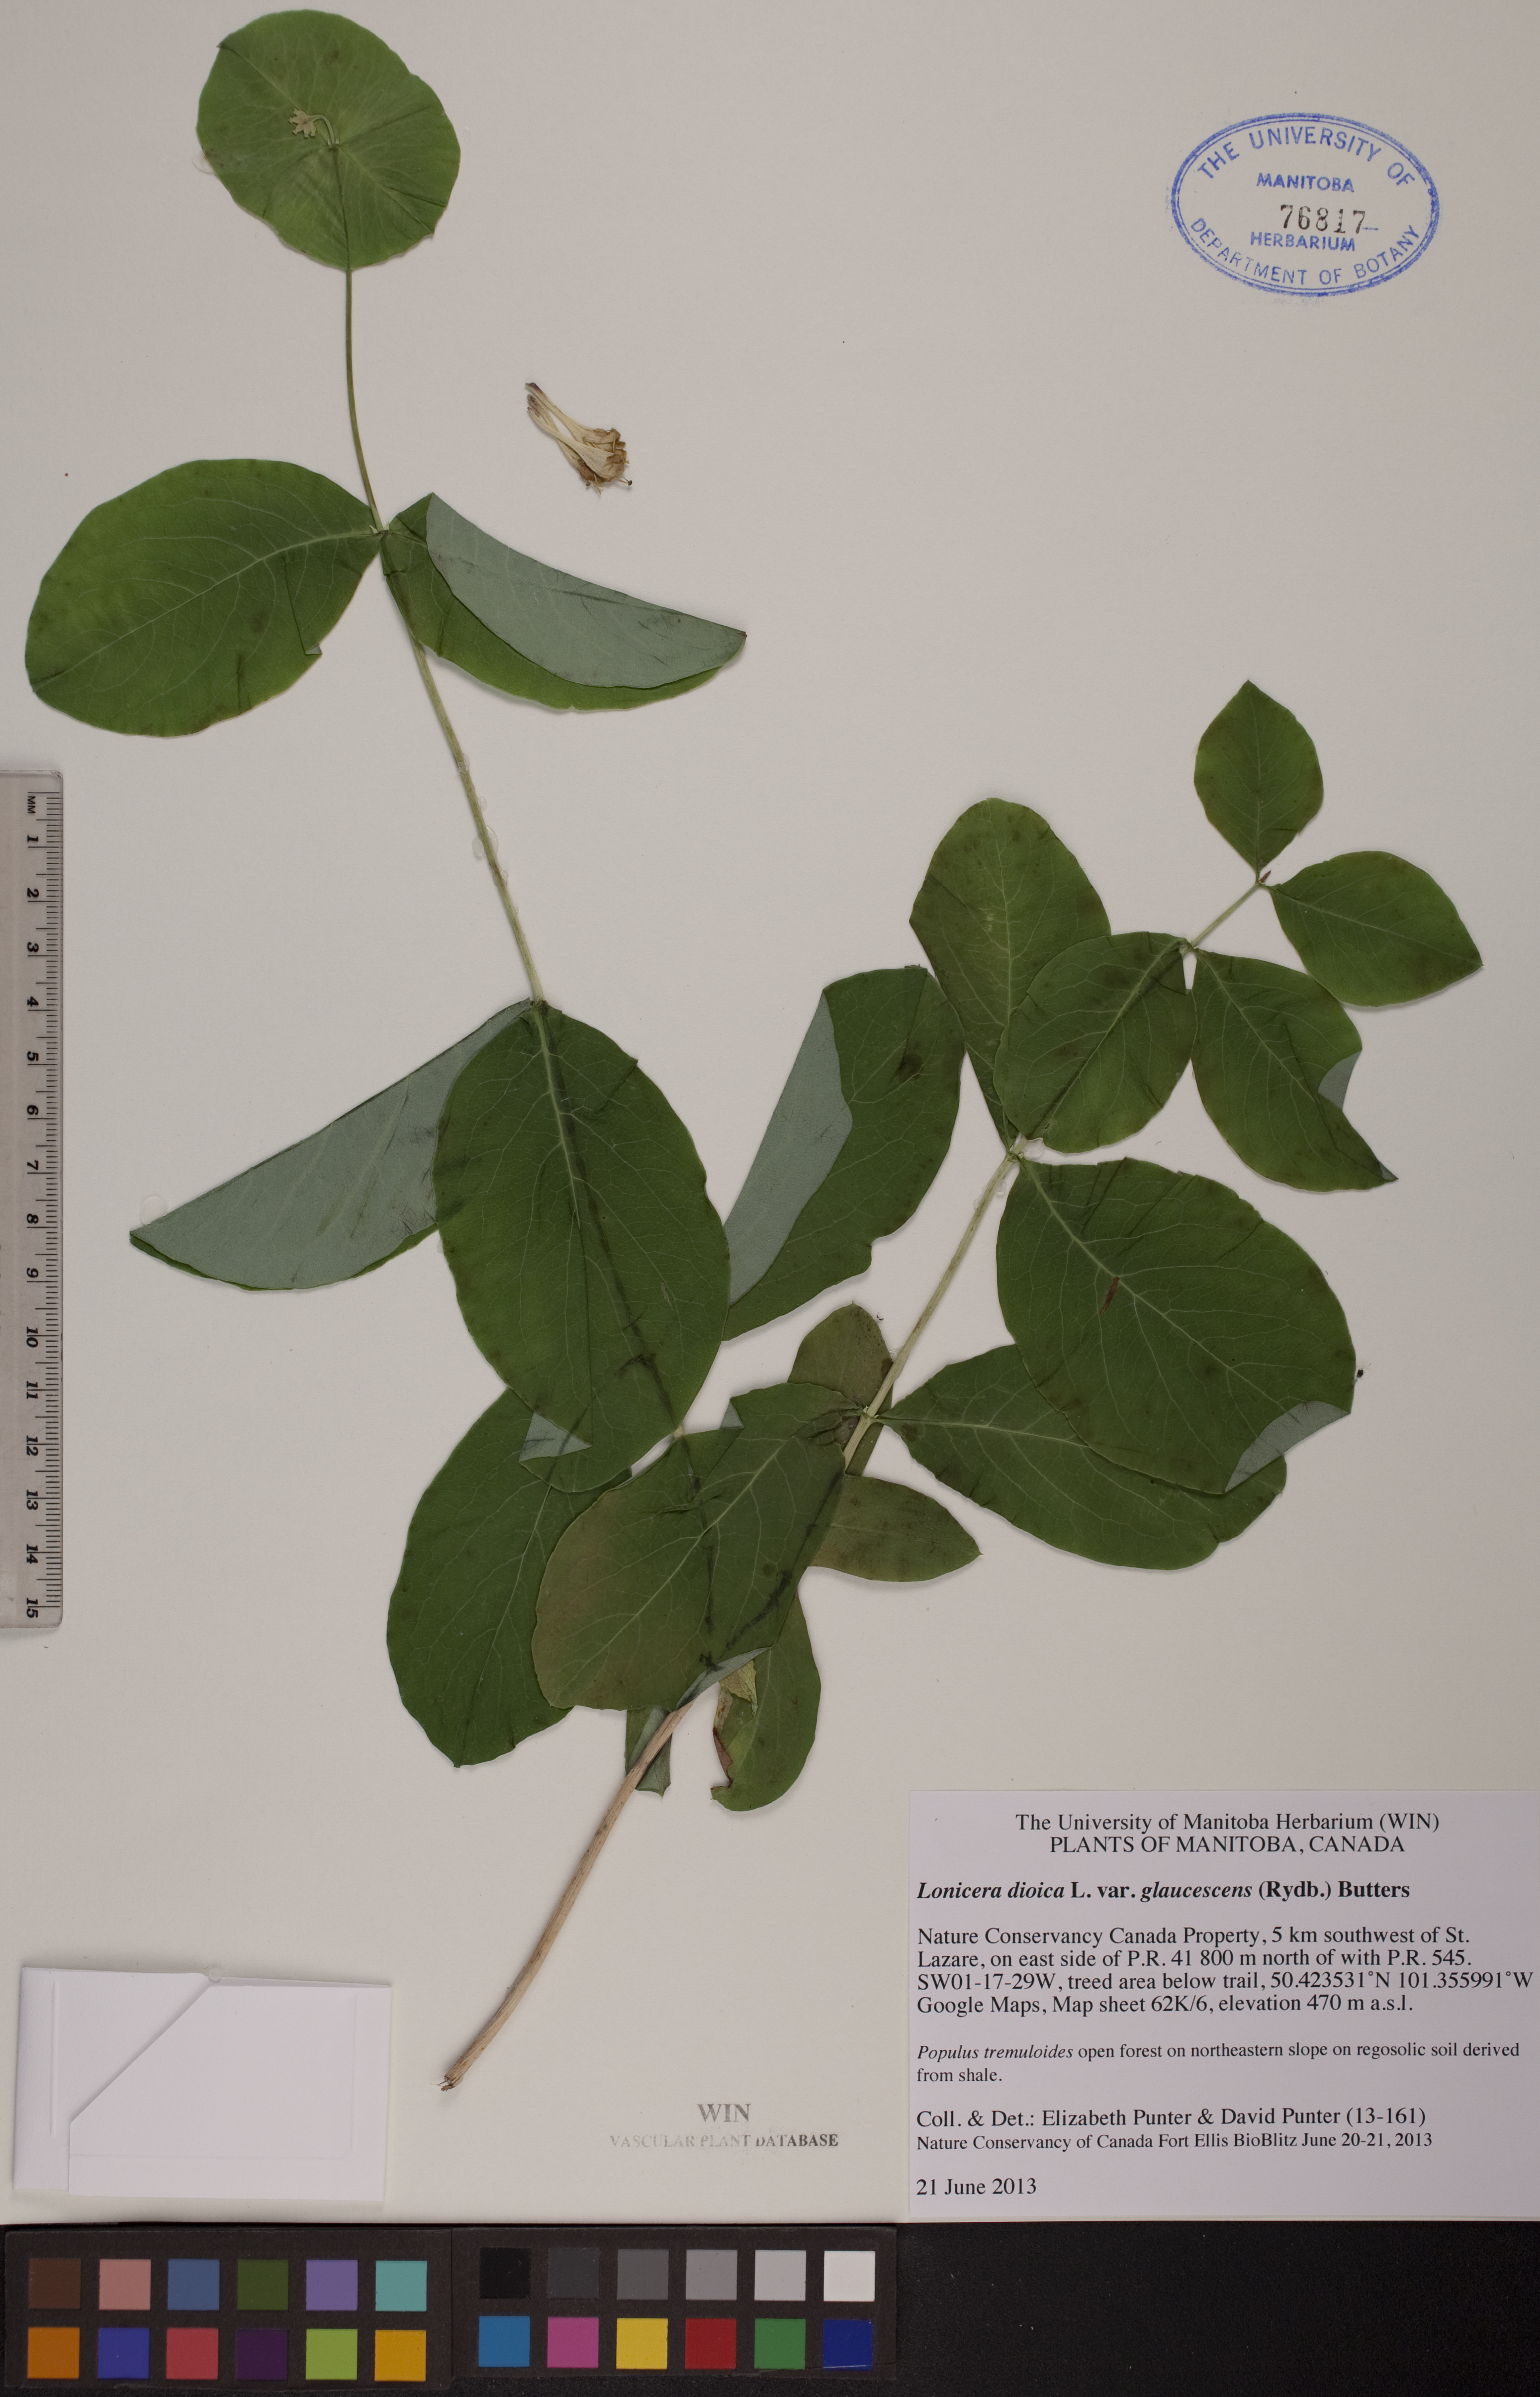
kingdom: Plantae
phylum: Tracheophyta
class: Magnoliopsida
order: Dipsacales
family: Caprifoliaceae
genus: Lonicera
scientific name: Lonicera dioica
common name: Limber honeysuckle
